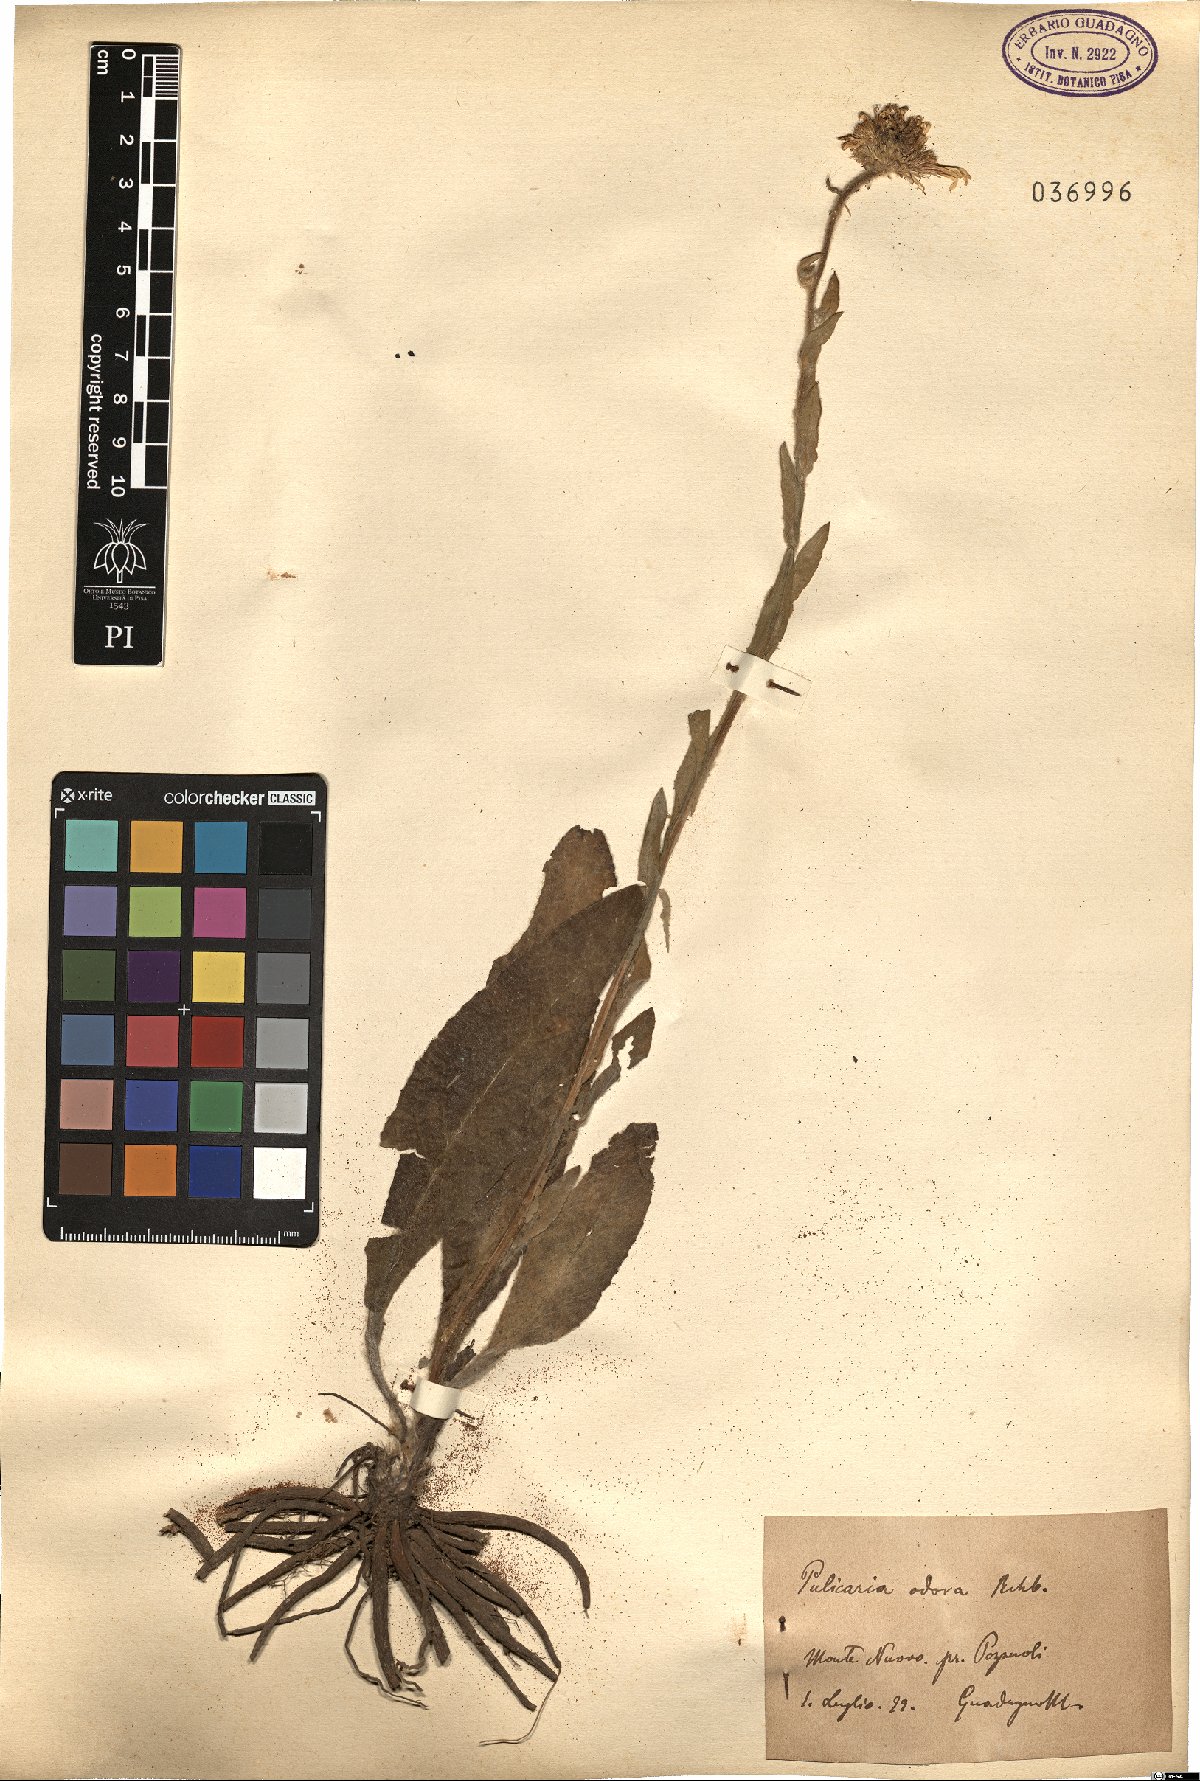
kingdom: Plantae
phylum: Tracheophyta
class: Magnoliopsida
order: Asterales
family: Asteraceae
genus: Pulicaria
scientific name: Pulicaria odora
